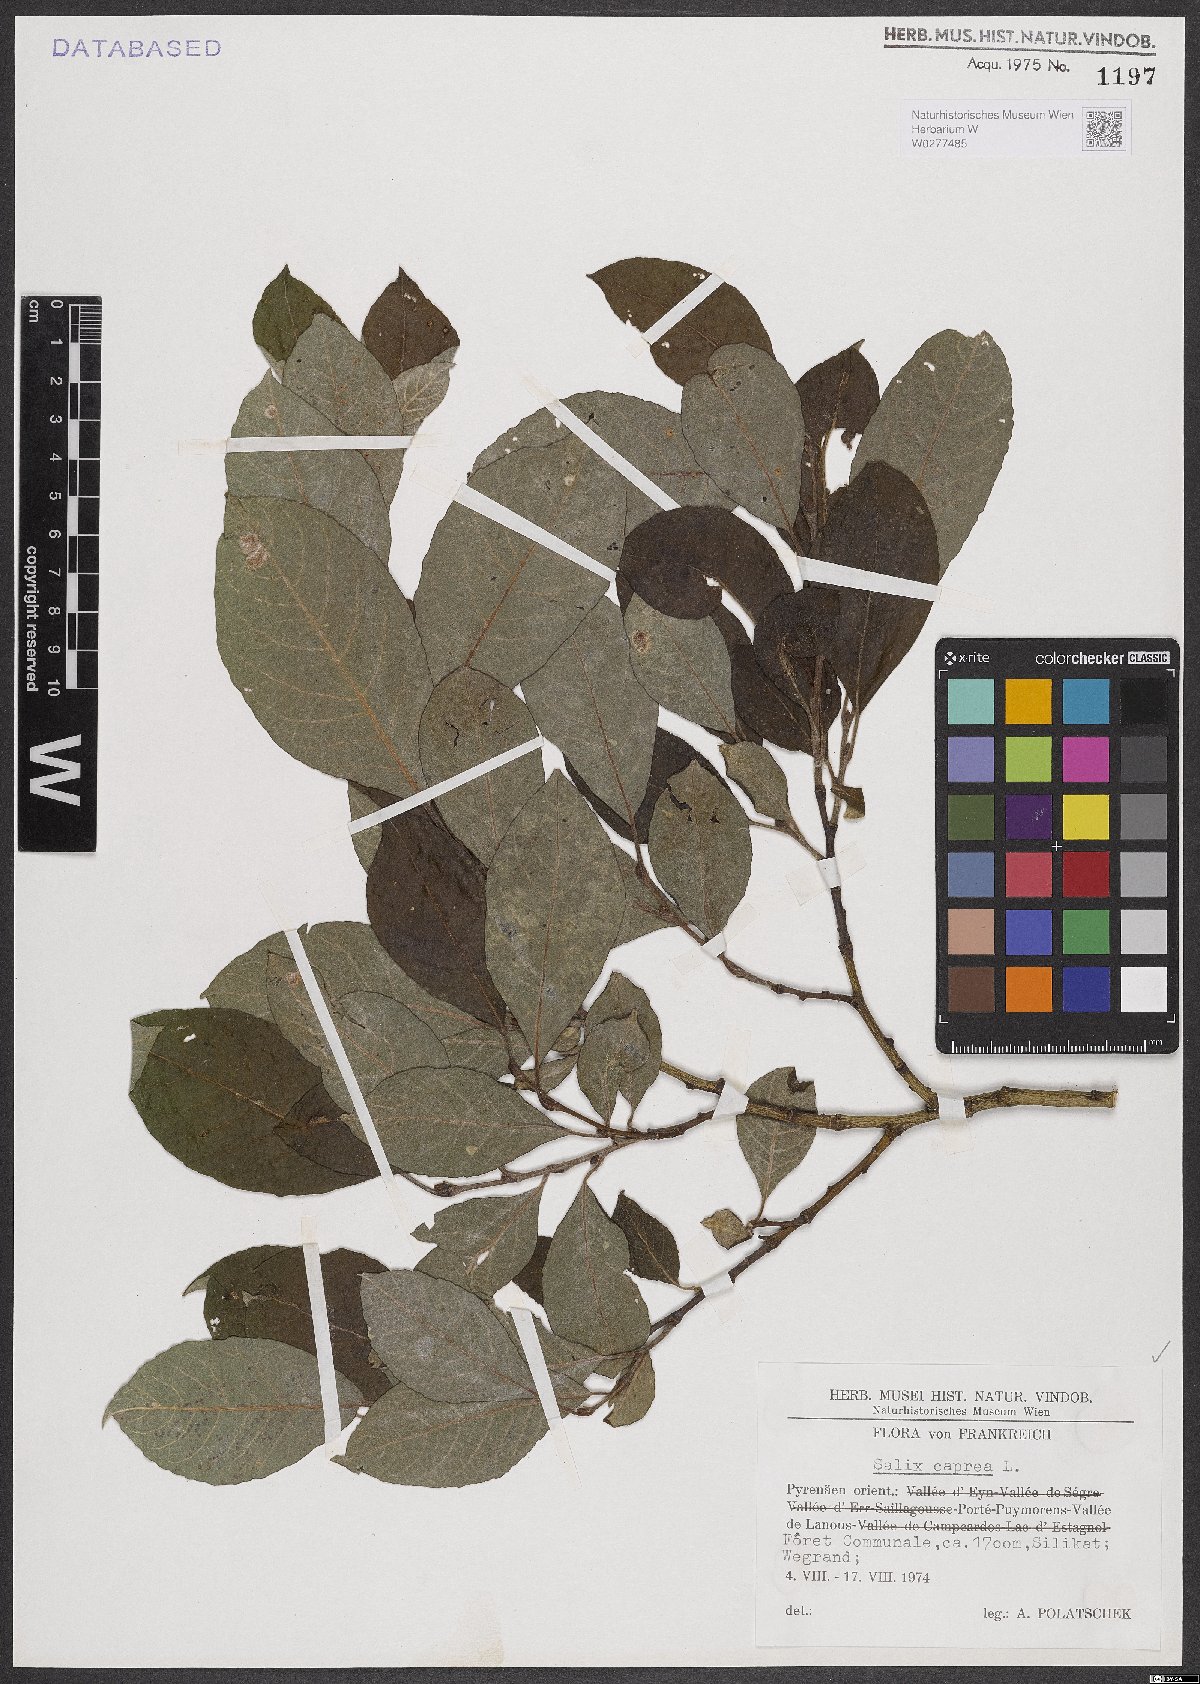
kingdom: Plantae
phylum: Tracheophyta
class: Magnoliopsida
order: Malpighiales
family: Salicaceae
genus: Salix
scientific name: Salix caprea
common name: Goat willow
